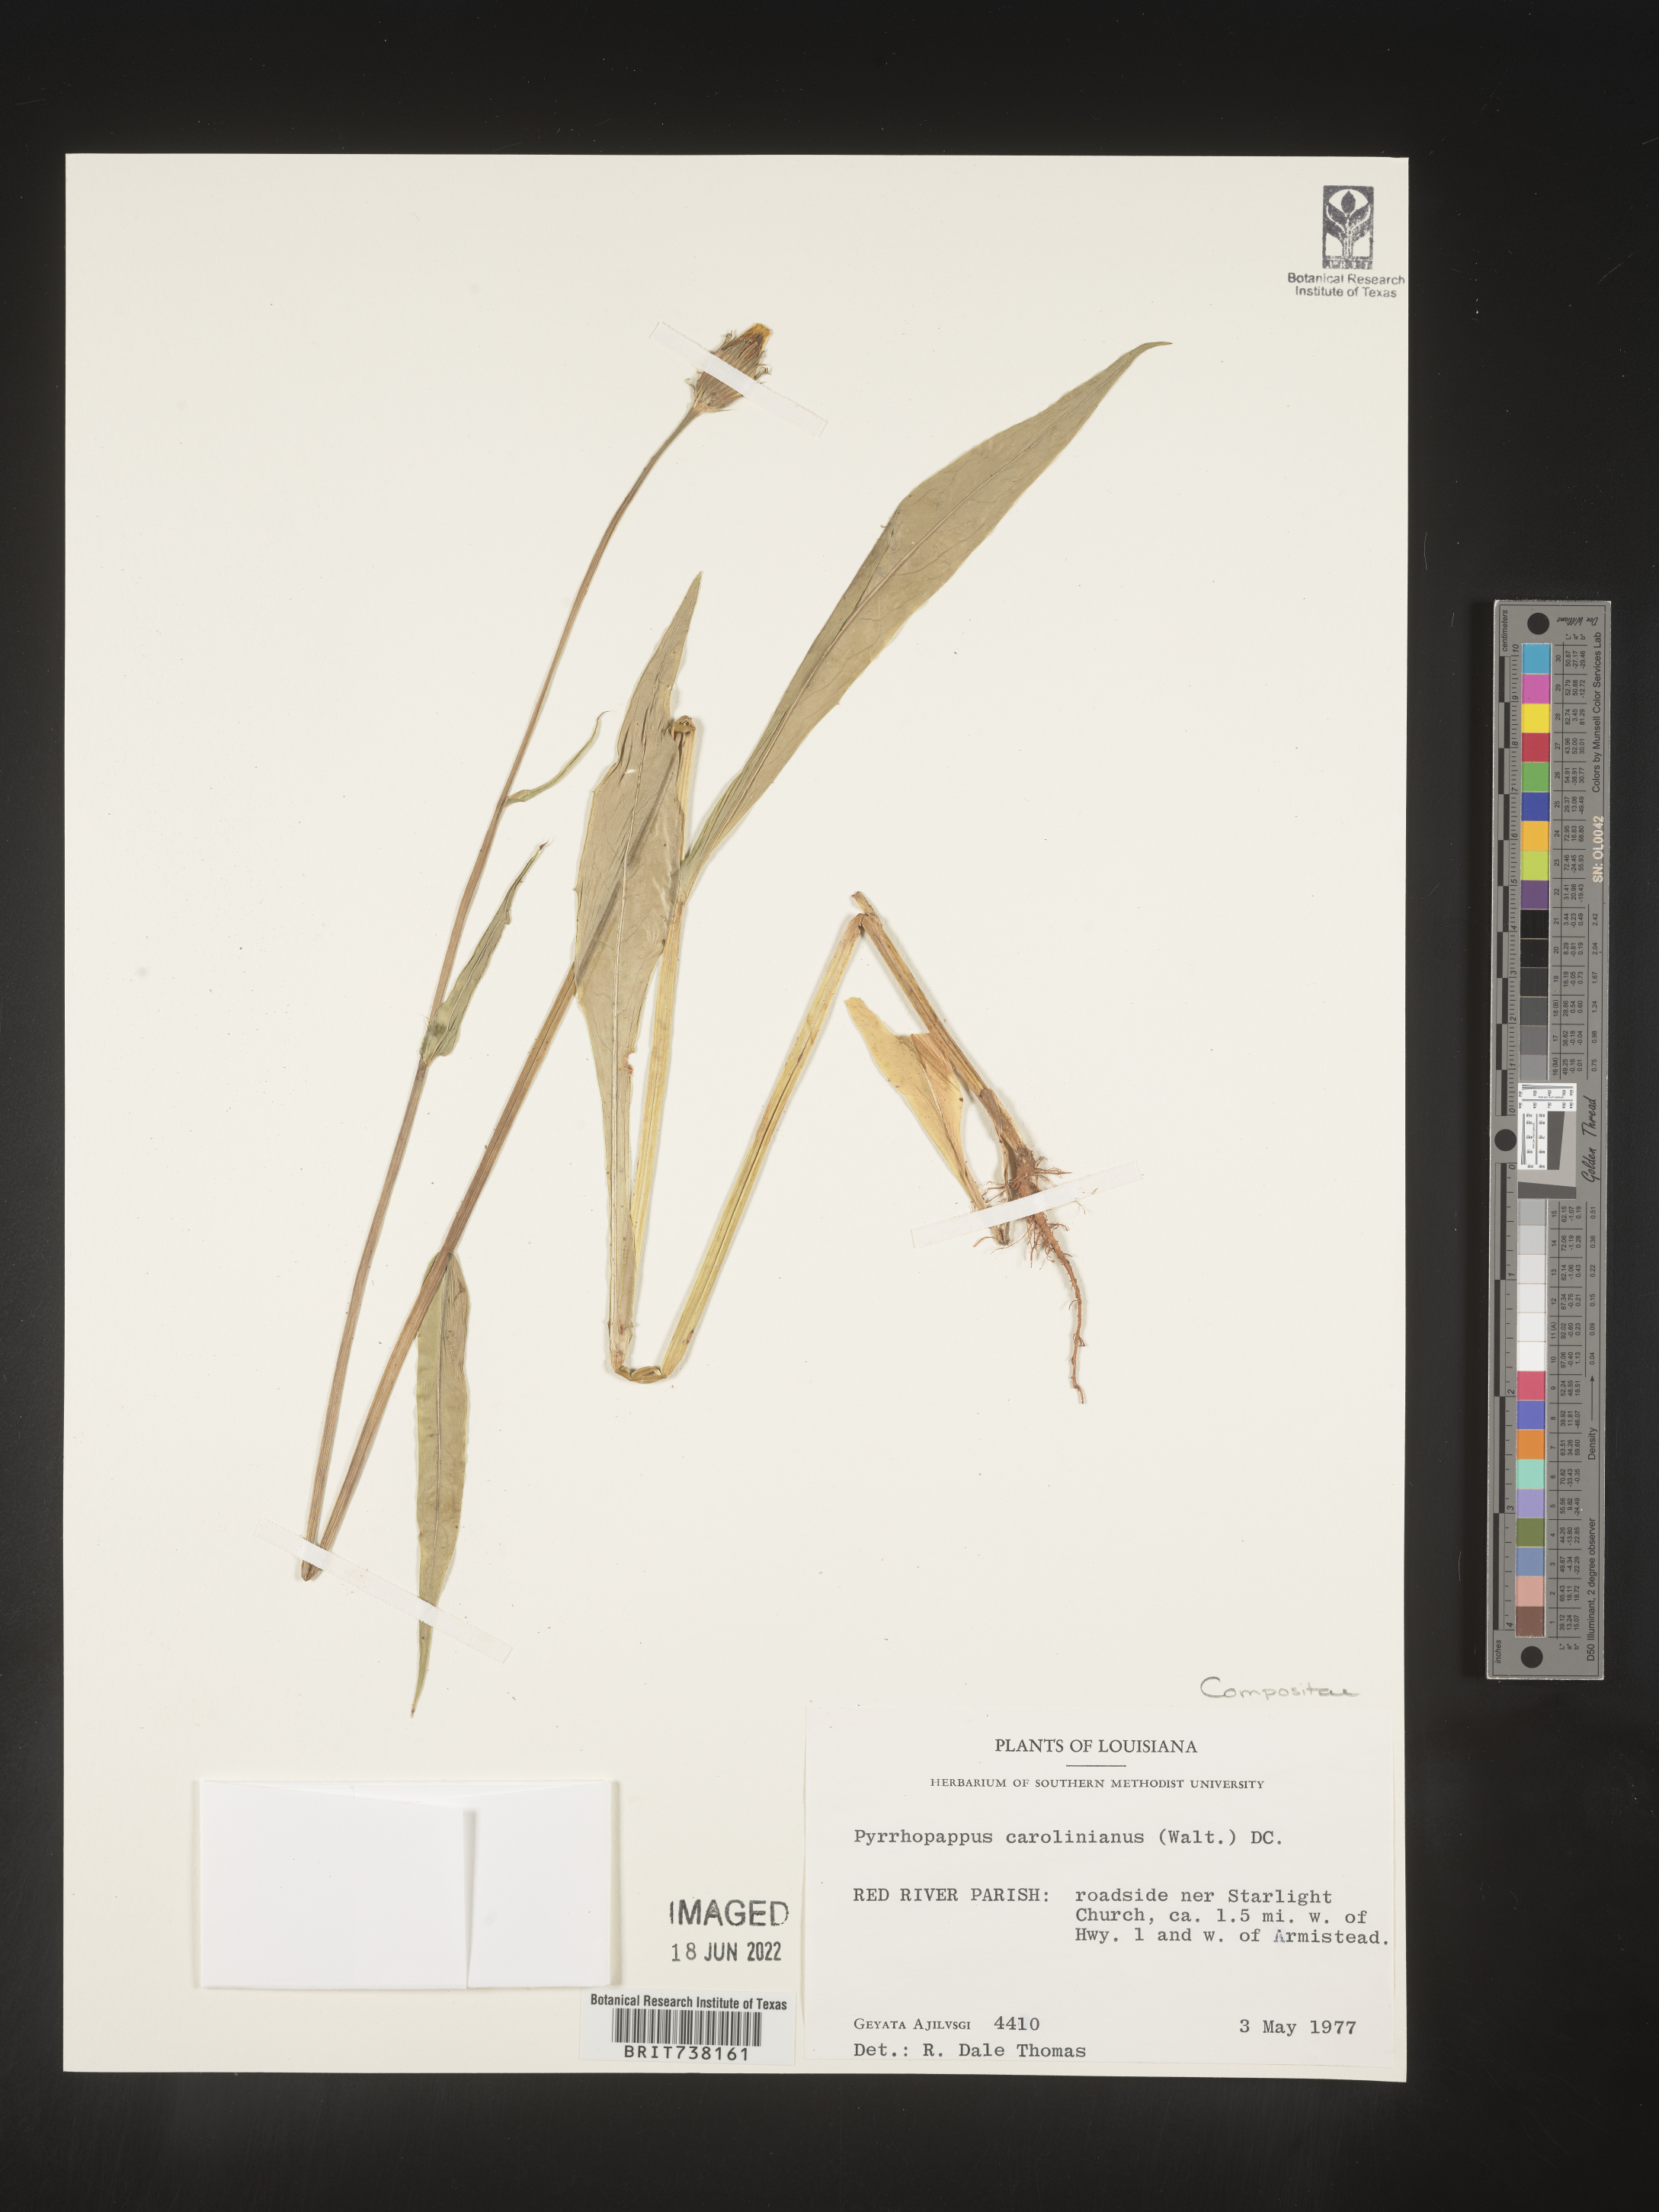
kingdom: Plantae
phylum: Tracheophyta
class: Magnoliopsida
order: Asterales
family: Asteraceae
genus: Pyrrhopappus
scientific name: Pyrrhopappus carolinianus
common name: Carolina desert-chicory
